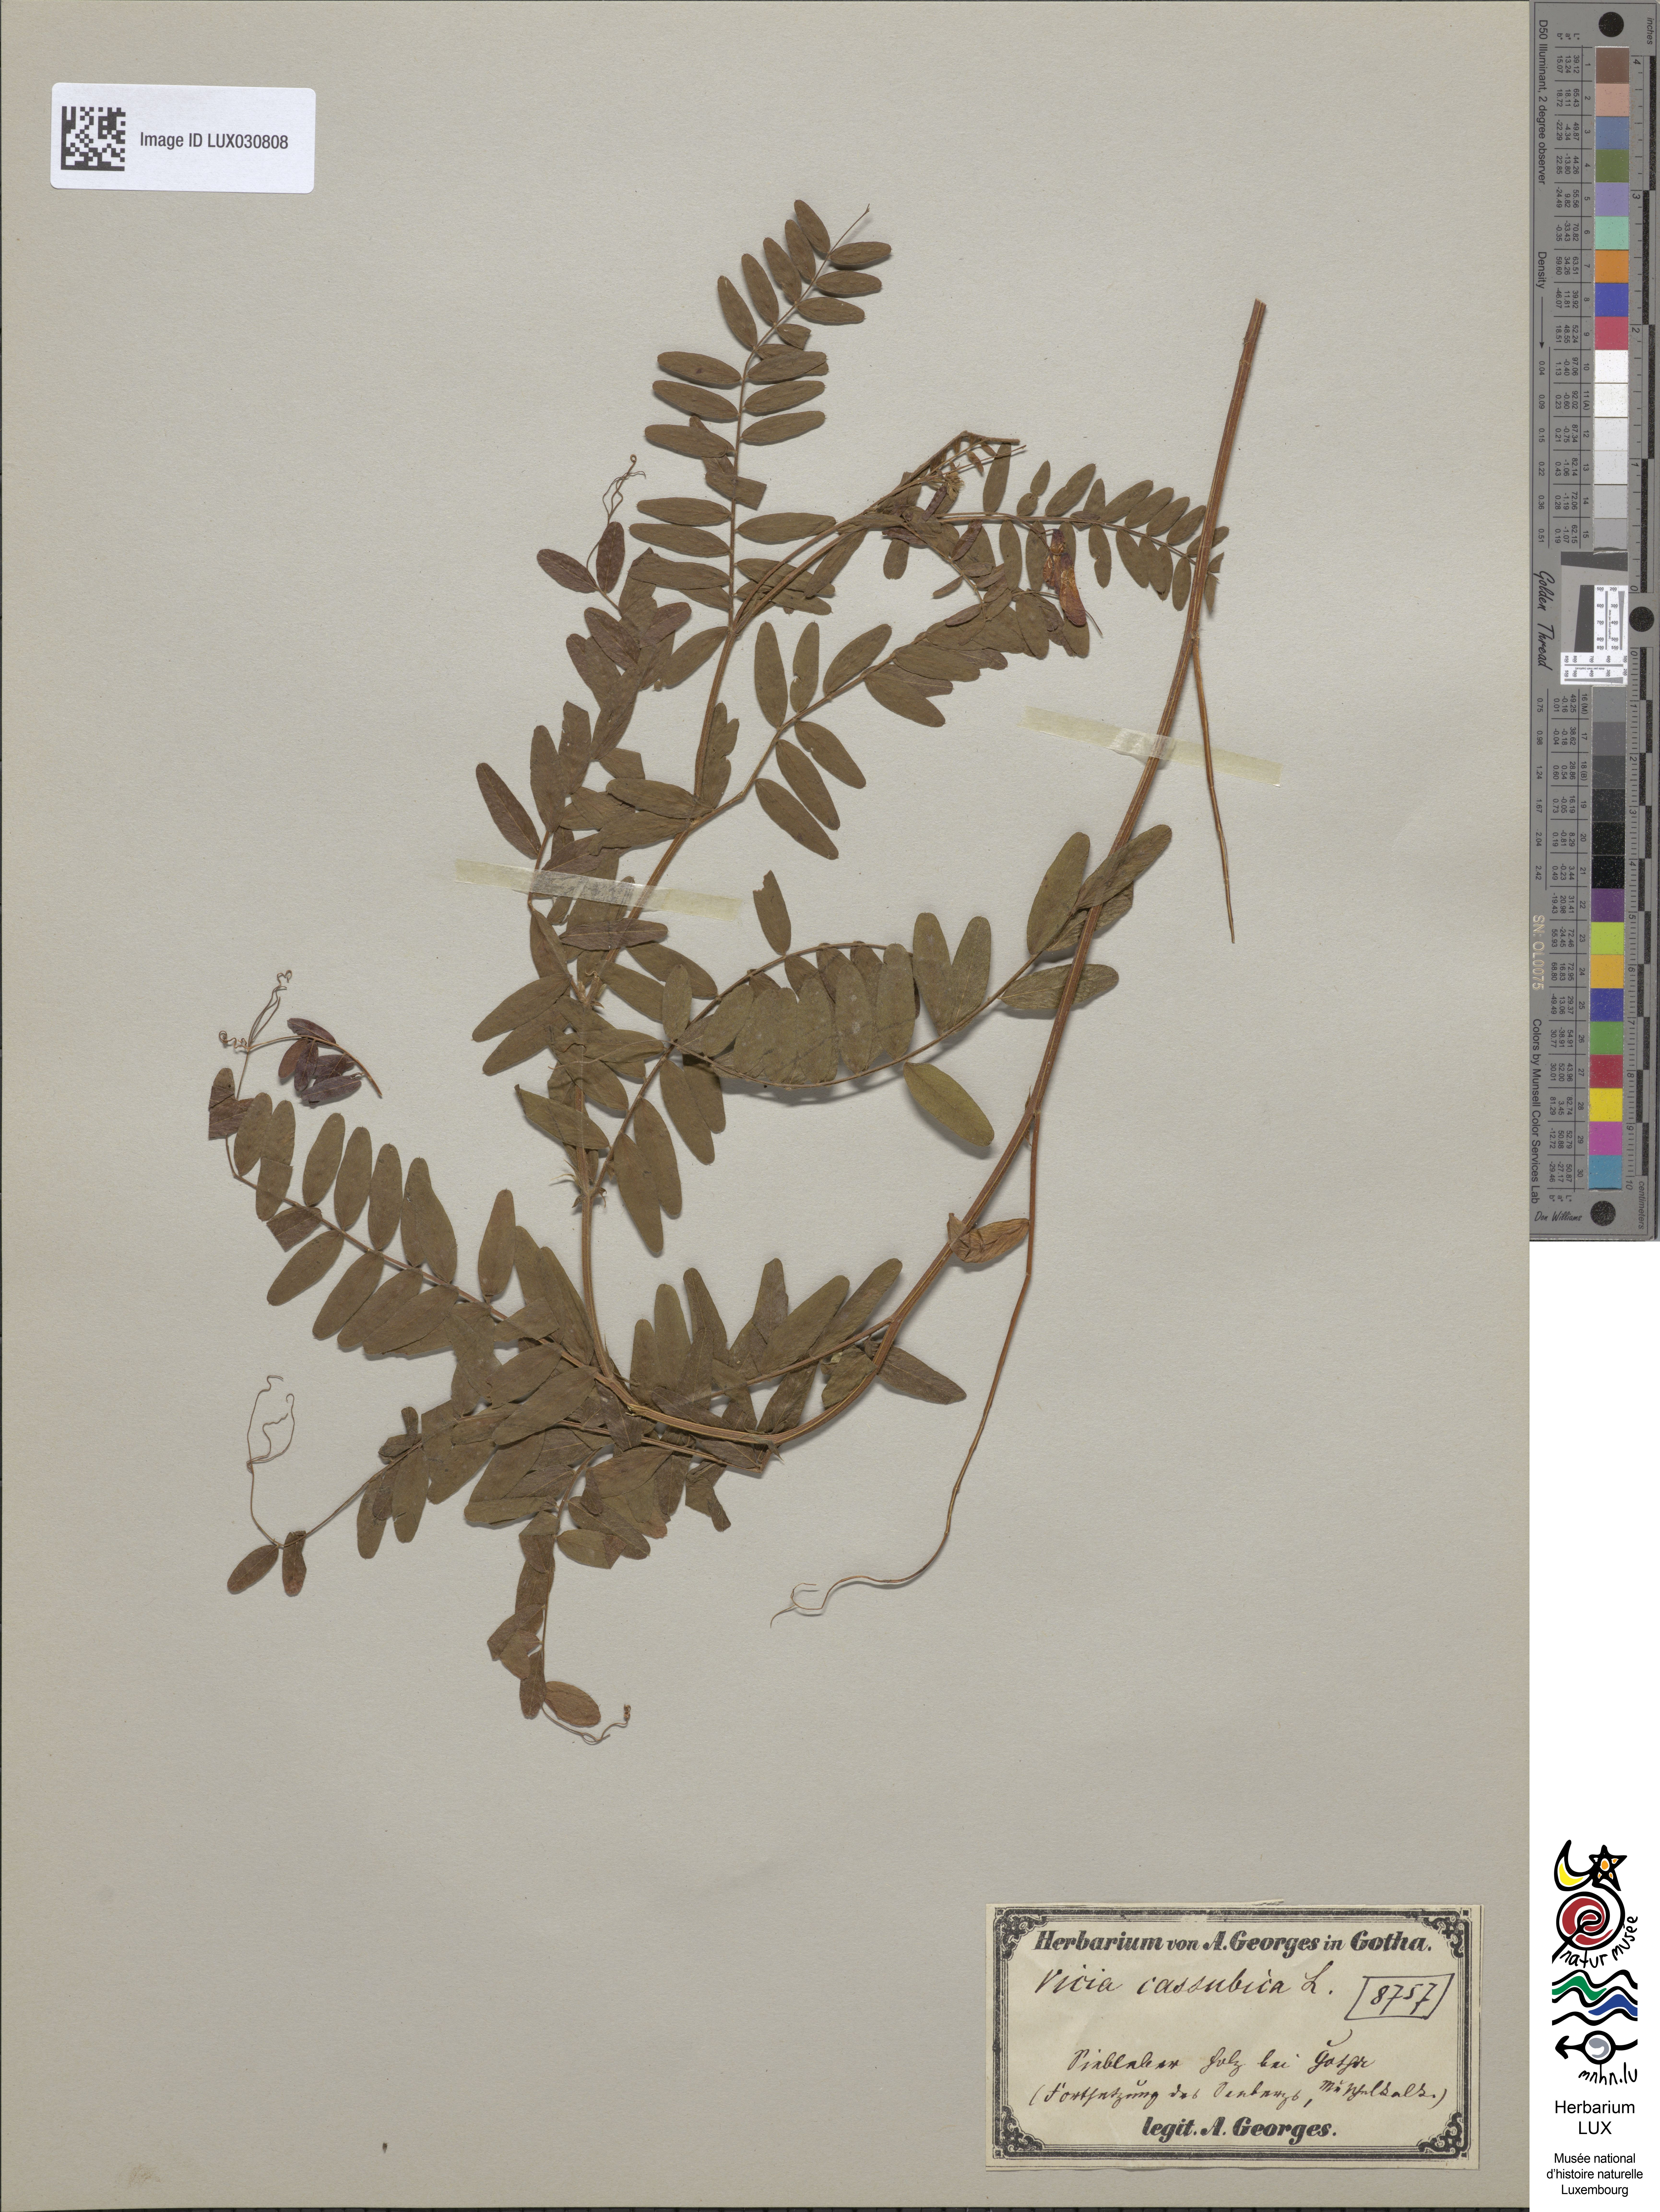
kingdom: Plantae
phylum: Tracheophyta
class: Magnoliopsida
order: Fabales
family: Fabaceae
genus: Vicia
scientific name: Vicia cassubica
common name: Danzig vetch
